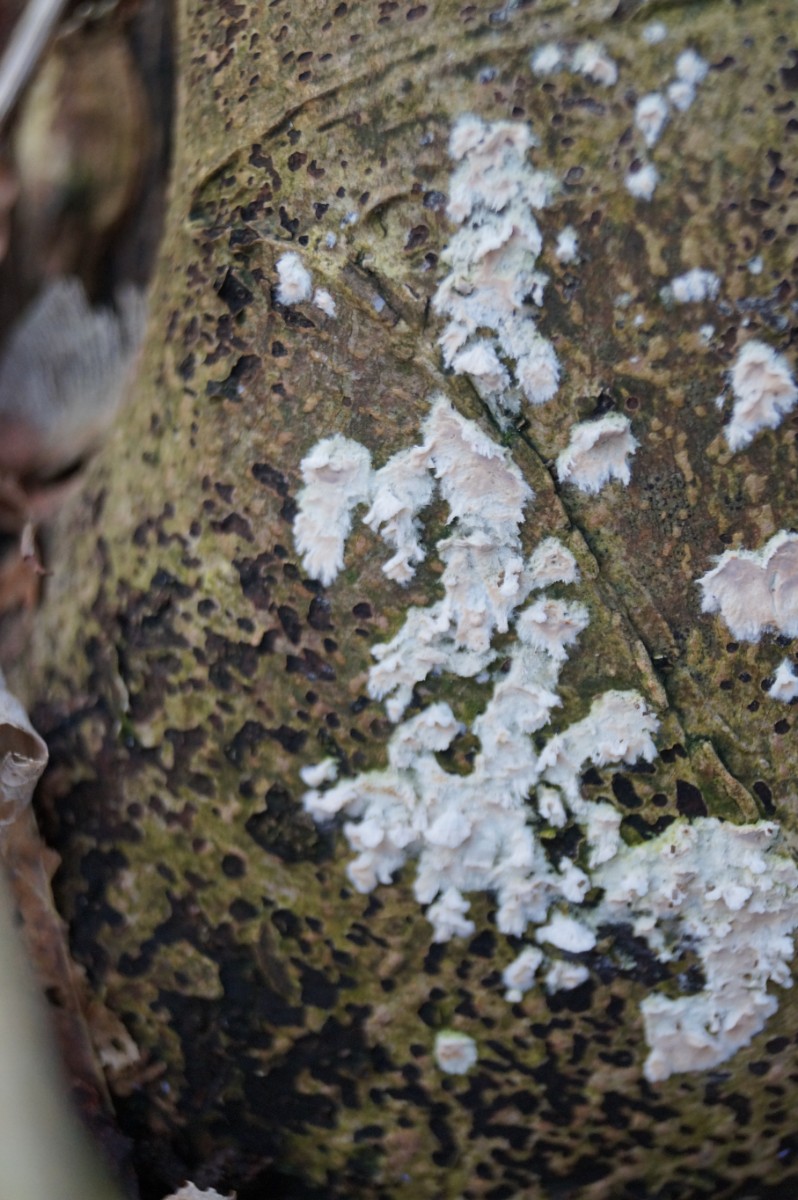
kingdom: Fungi
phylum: Basidiomycota
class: Agaricomycetes
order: Corticiales
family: Corticiaceae
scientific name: Corticiaceae
